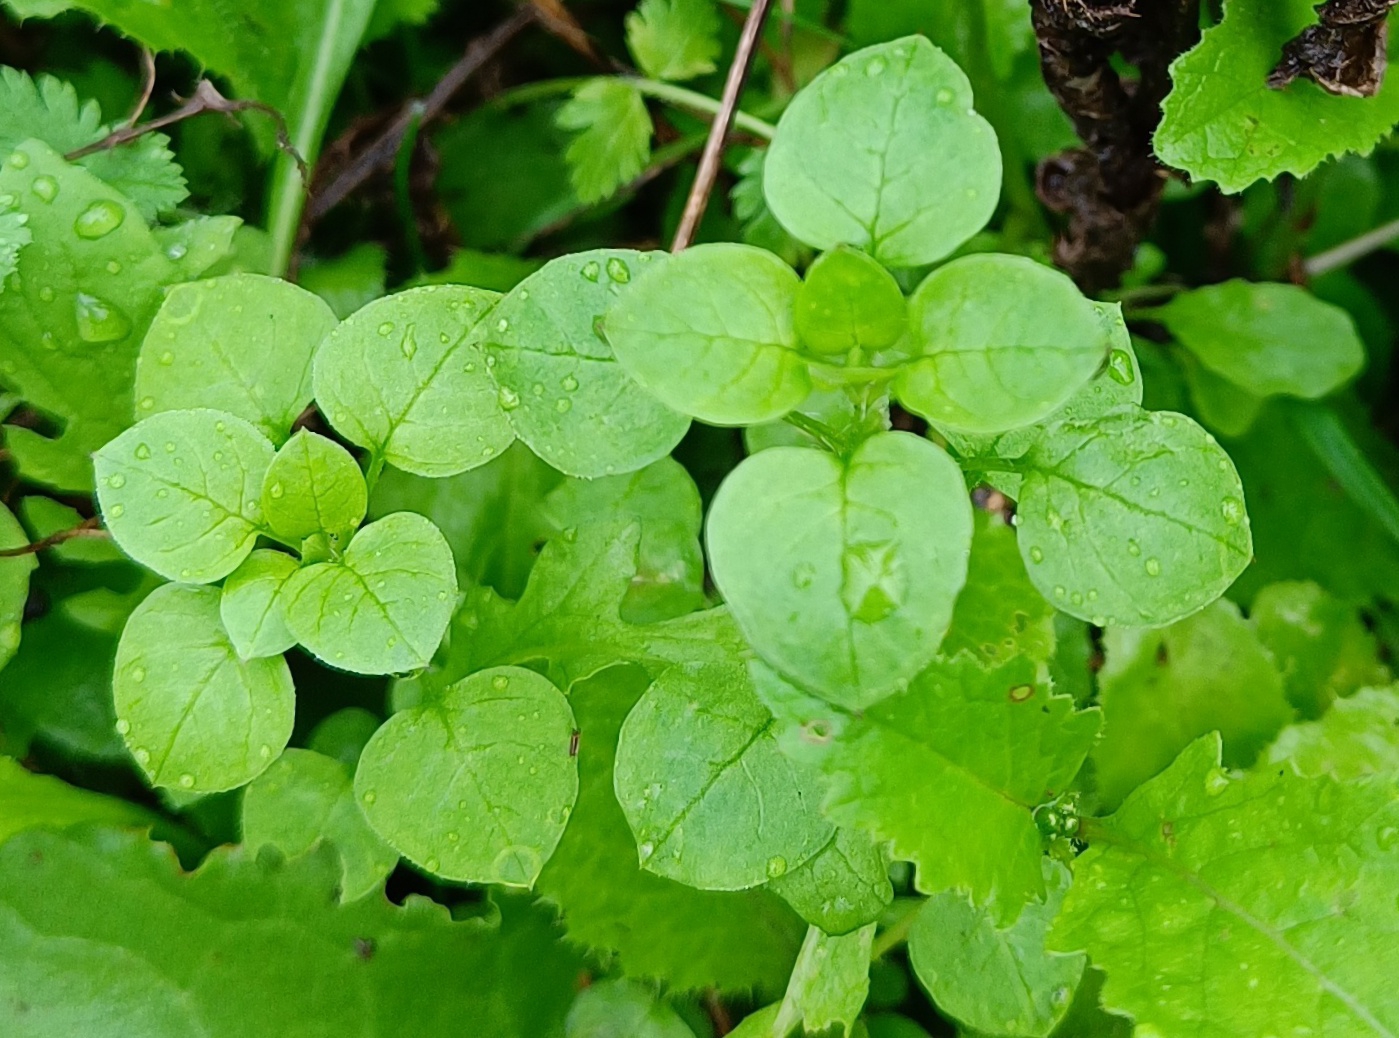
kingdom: Plantae
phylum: Tracheophyta
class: Magnoliopsida
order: Caryophyllales
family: Caryophyllaceae
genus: Stellaria
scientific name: Stellaria media
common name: Almindelig fuglegræs
